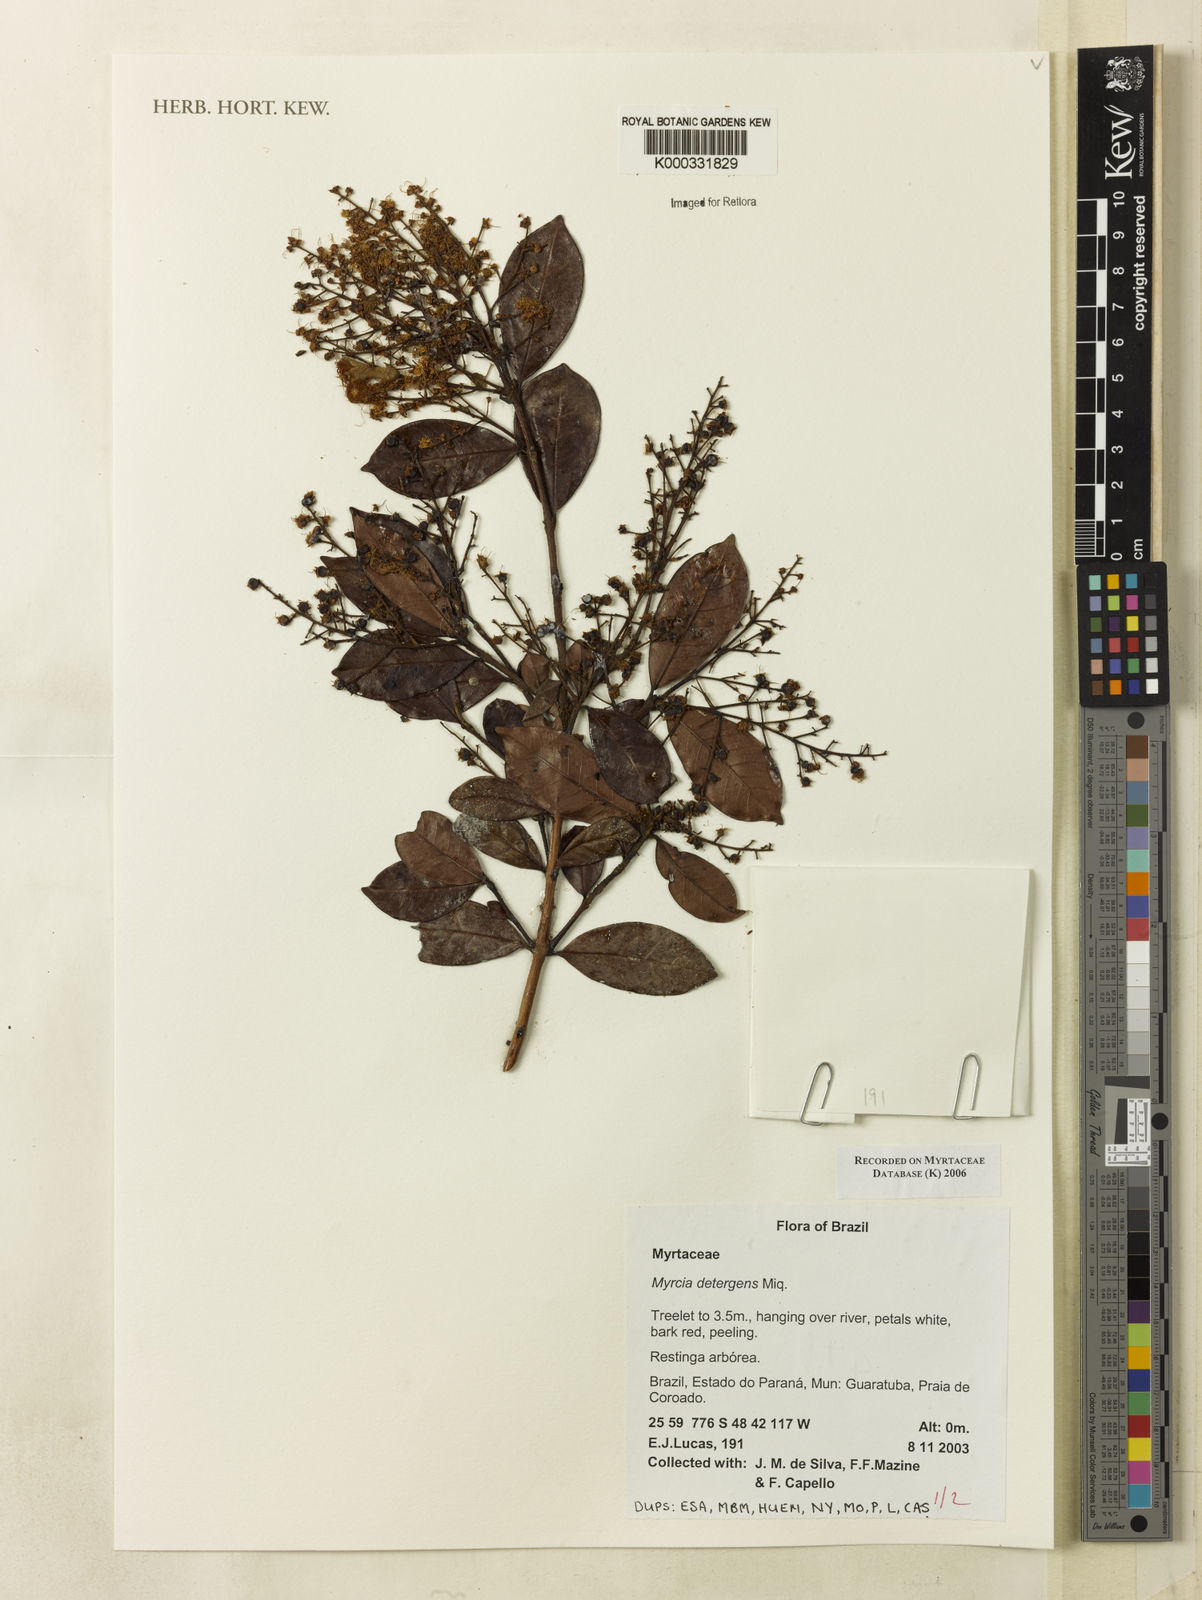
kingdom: Plantae
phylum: Tracheophyta
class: Magnoliopsida
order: Myrtales
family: Myrtaceae
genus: Myrcia
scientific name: Myrcia amazonica
